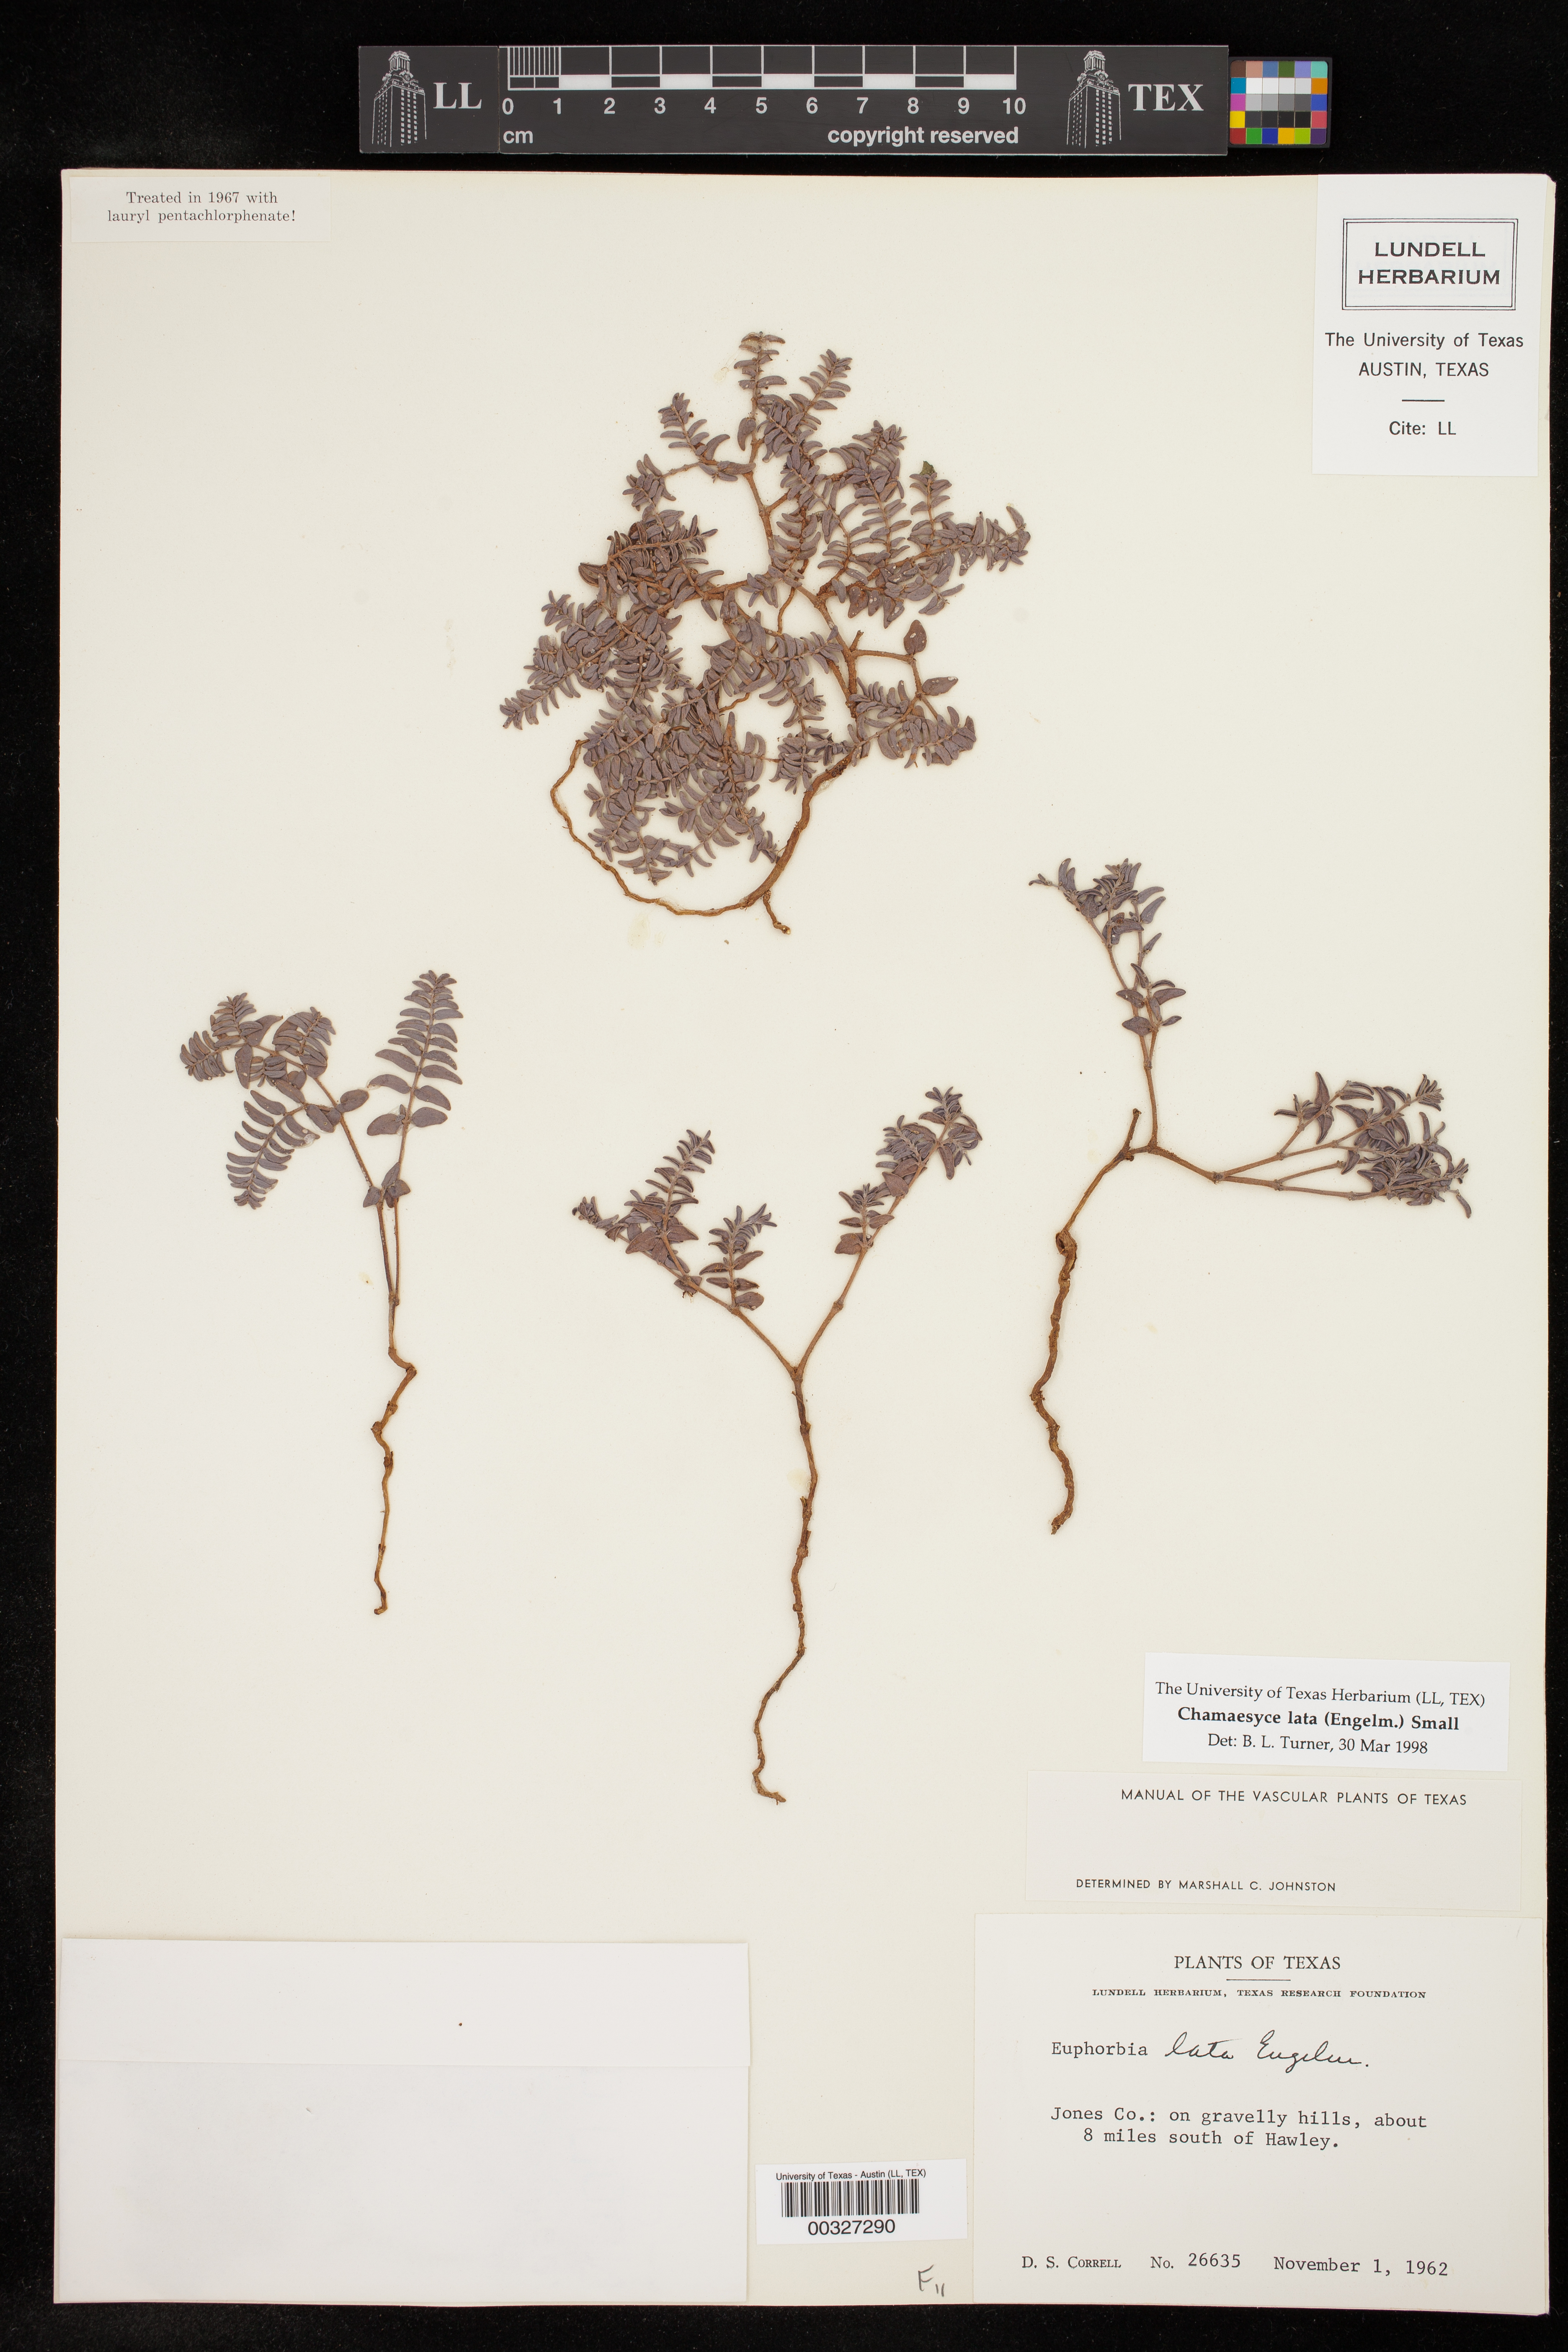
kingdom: Plantae
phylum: Tracheophyta
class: Magnoliopsida
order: Malpighiales
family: Euphorbiaceae
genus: Euphorbia
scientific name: Euphorbia lata
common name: Hoary euphorbia
